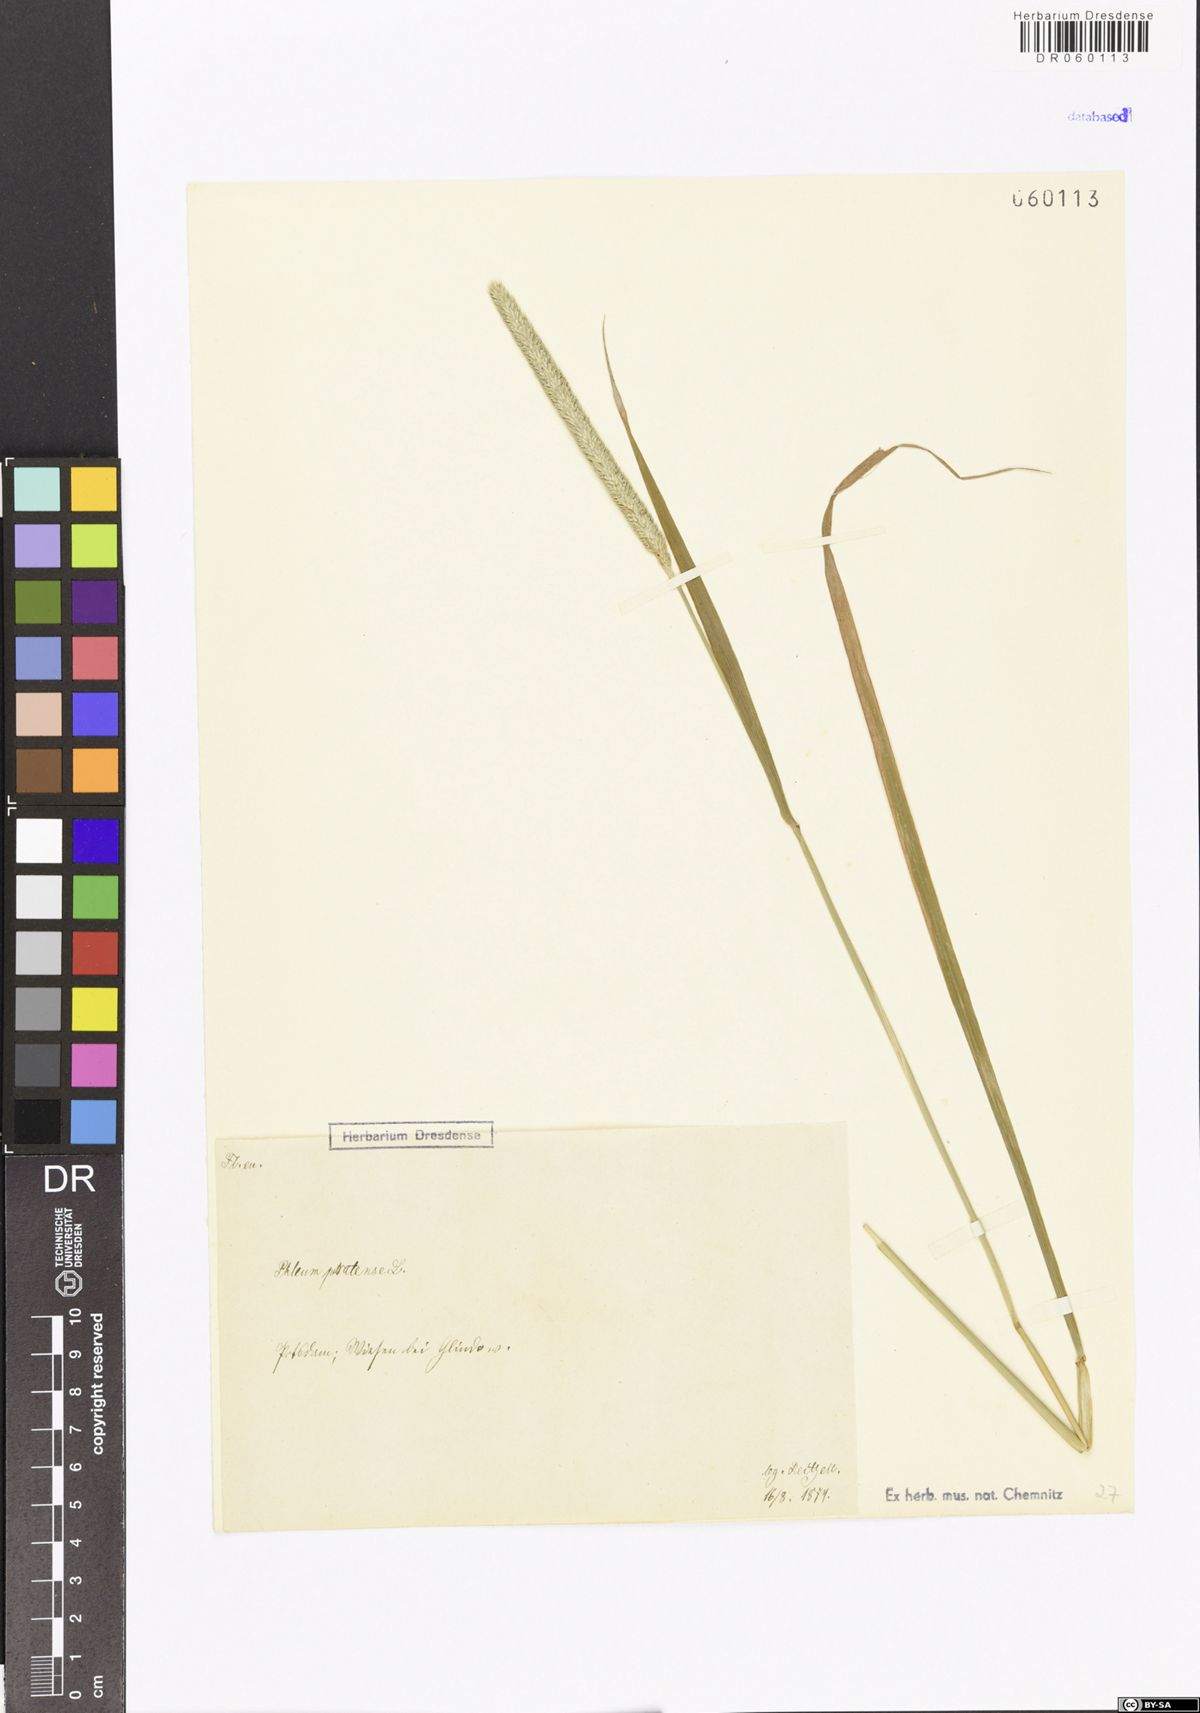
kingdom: Plantae
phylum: Tracheophyta
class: Liliopsida
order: Poales
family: Poaceae
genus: Phleum
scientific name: Phleum pratense
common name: Timothy grass
